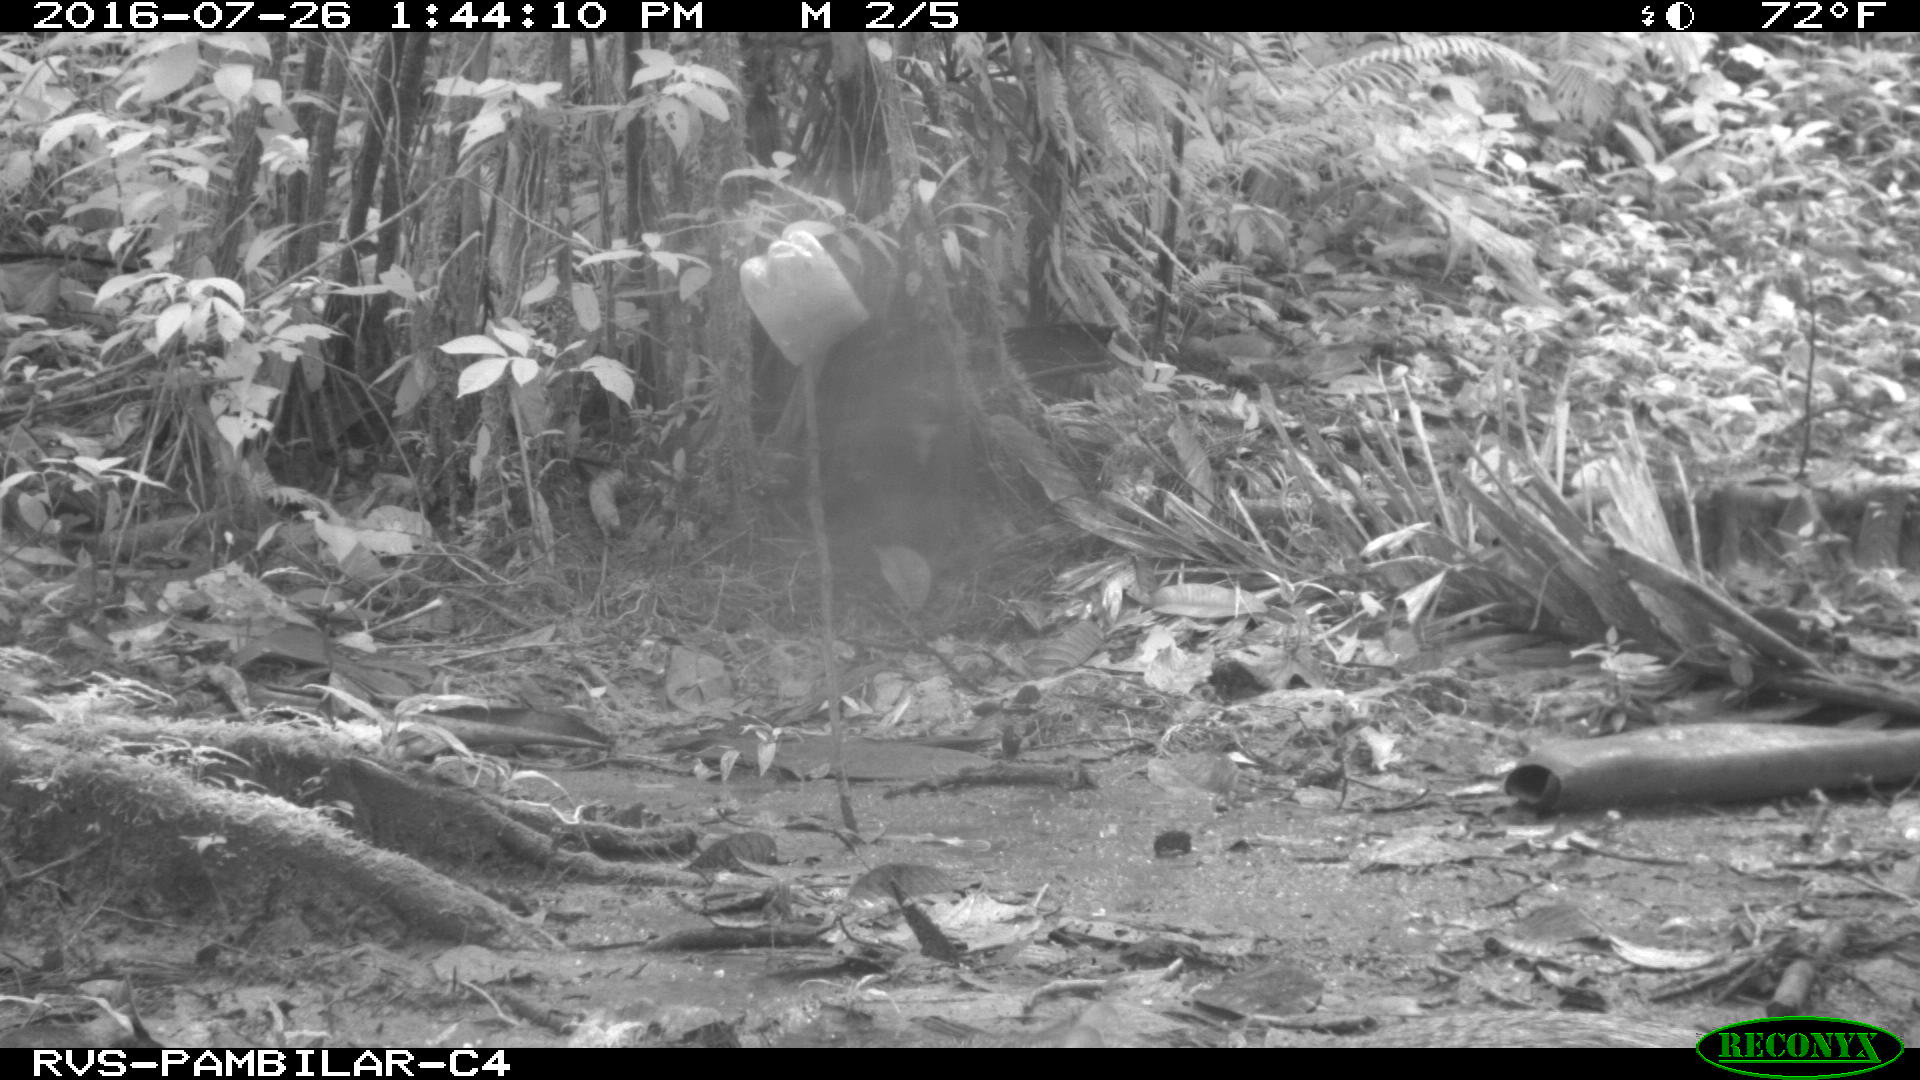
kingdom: Animalia
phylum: Chordata
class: Mammalia
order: Rodentia
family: Dasyproctidae
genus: Dasyprocta
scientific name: Dasyprocta punctata
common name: Central american agouti
